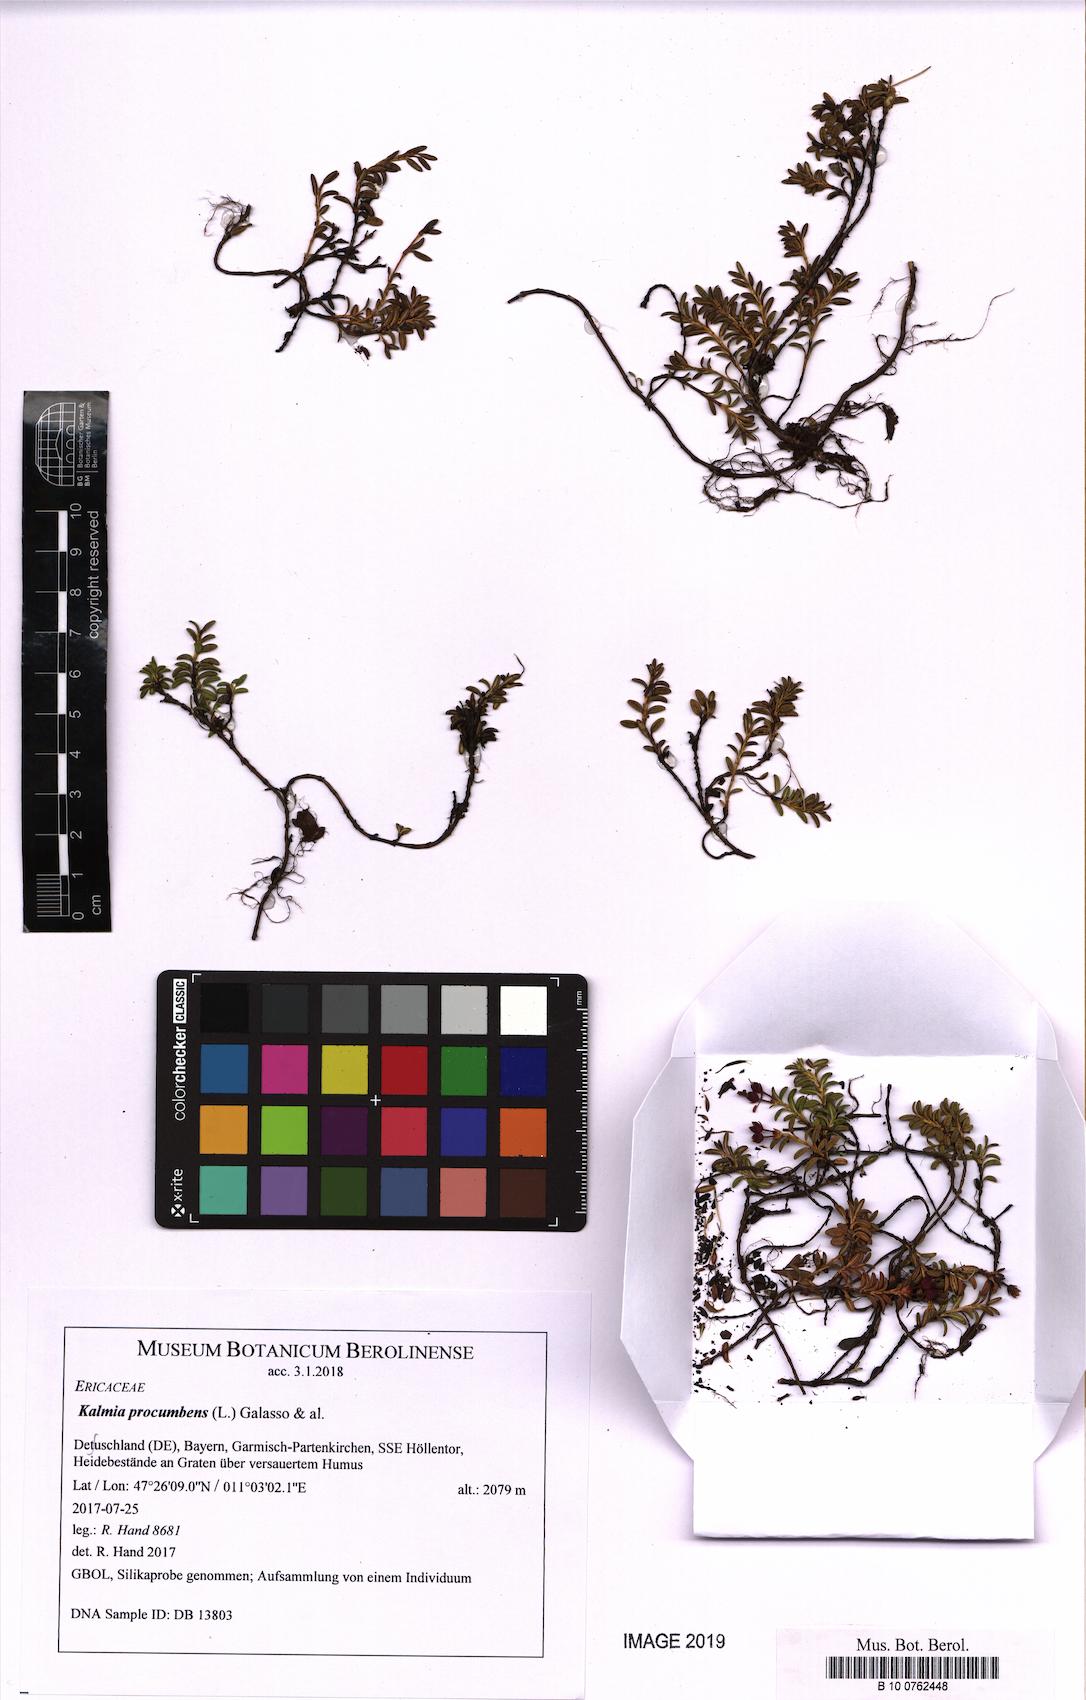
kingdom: Plantae
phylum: Tracheophyta
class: Magnoliopsida
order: Ericales
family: Ericaceae
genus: Kalmia
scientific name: Kalmia procumbens
